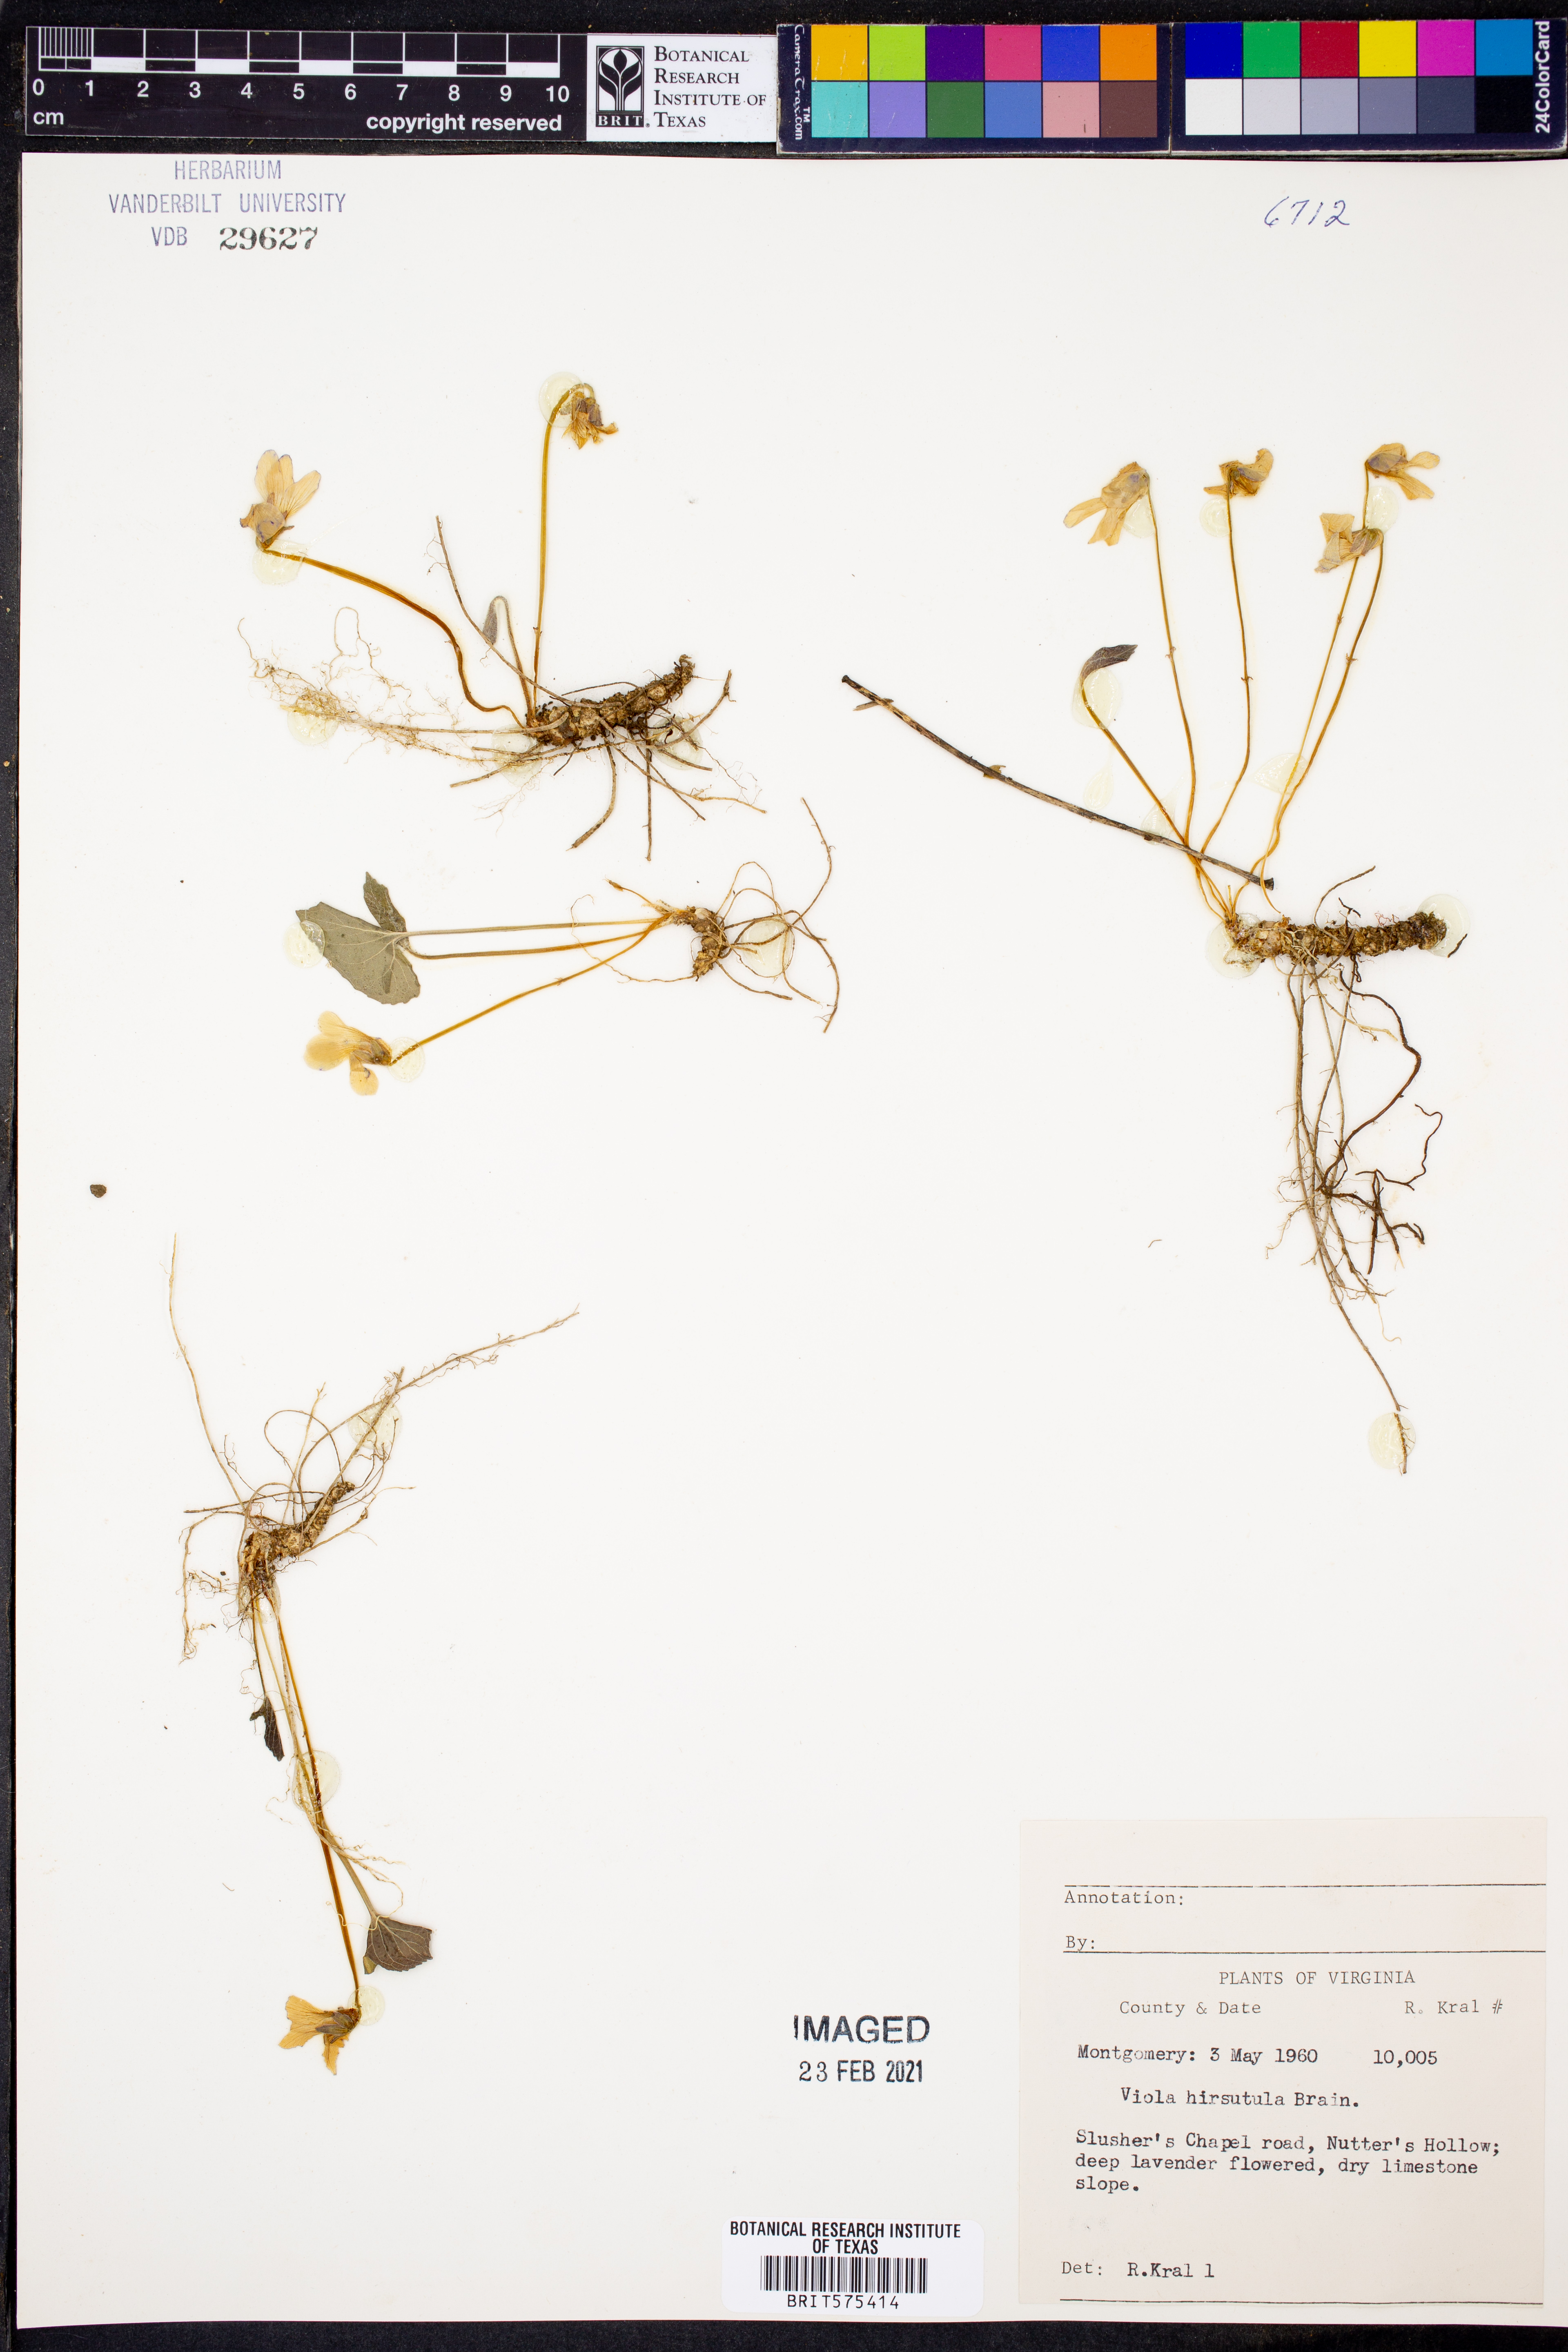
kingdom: Plantae
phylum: Tracheophyta
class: Magnoliopsida
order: Malpighiales
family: Violaceae
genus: Viola
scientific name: Viola hirsutula
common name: Southern wood violet
